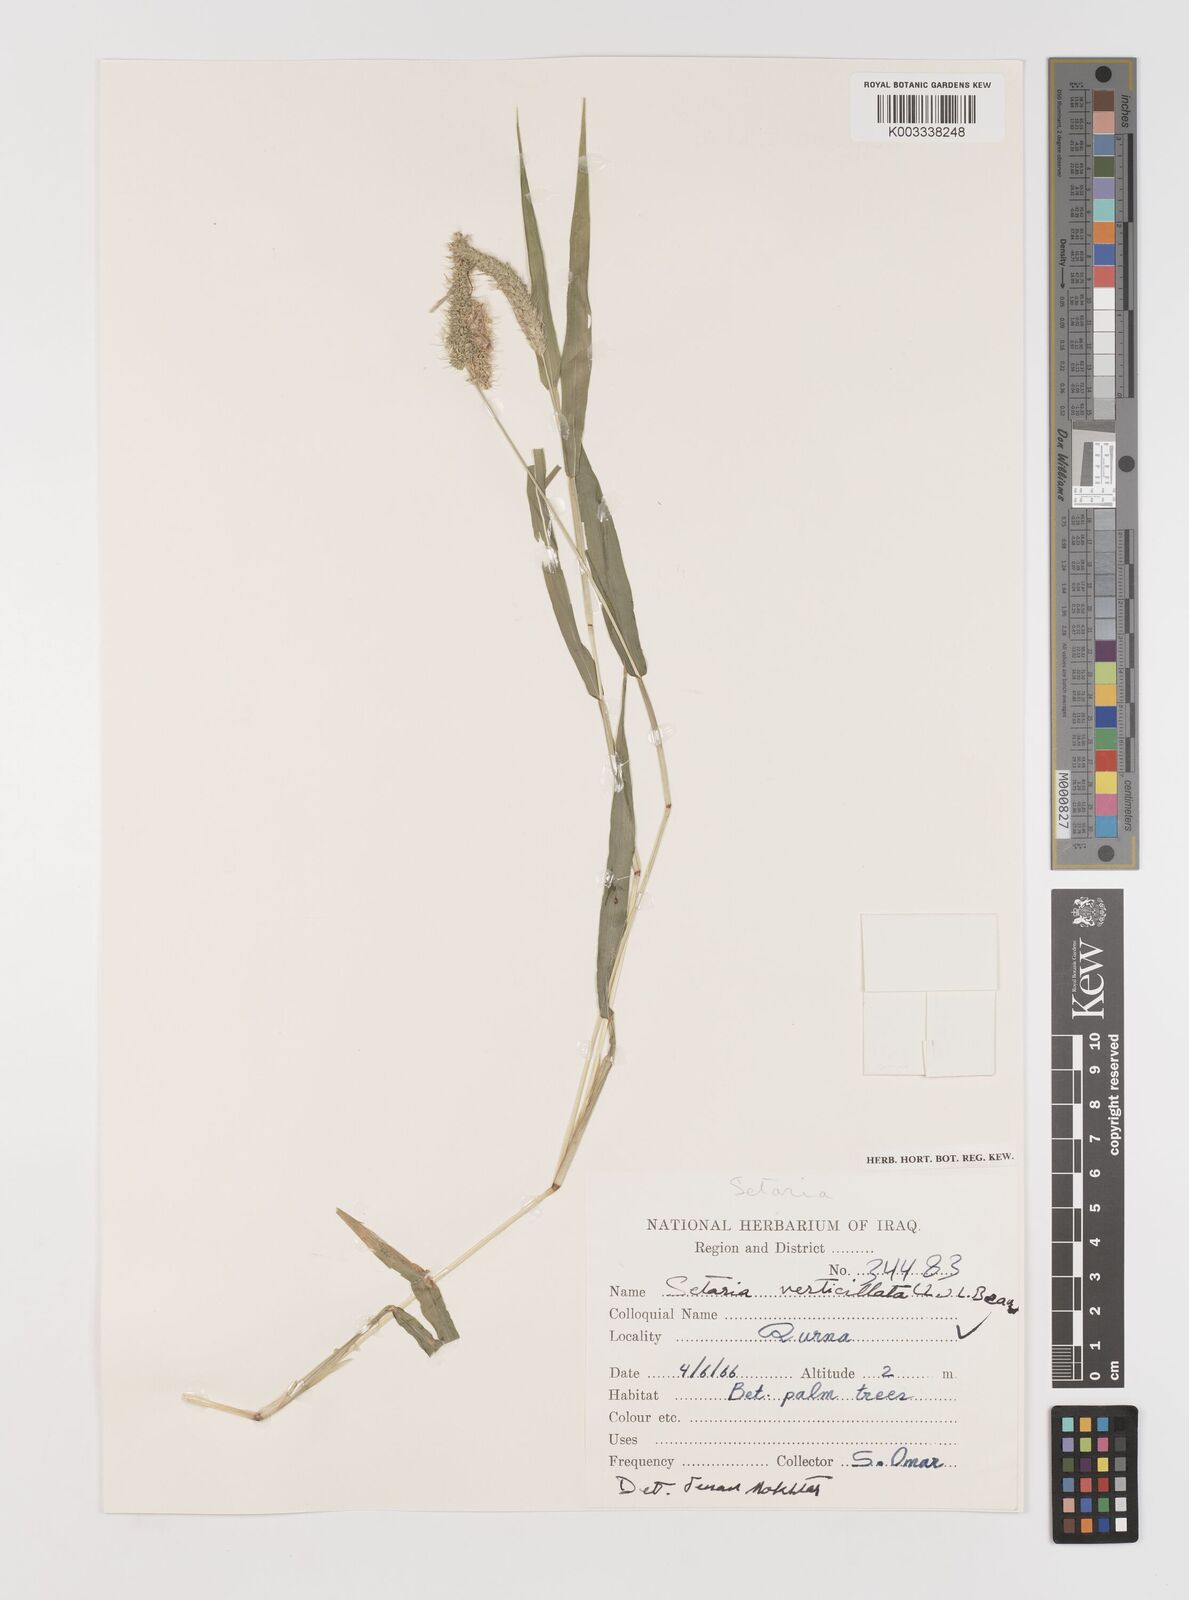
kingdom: Plantae
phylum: Tracheophyta
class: Liliopsida
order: Poales
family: Poaceae
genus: Setaria
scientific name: Setaria verticillata
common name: Hooked bristlegrass
